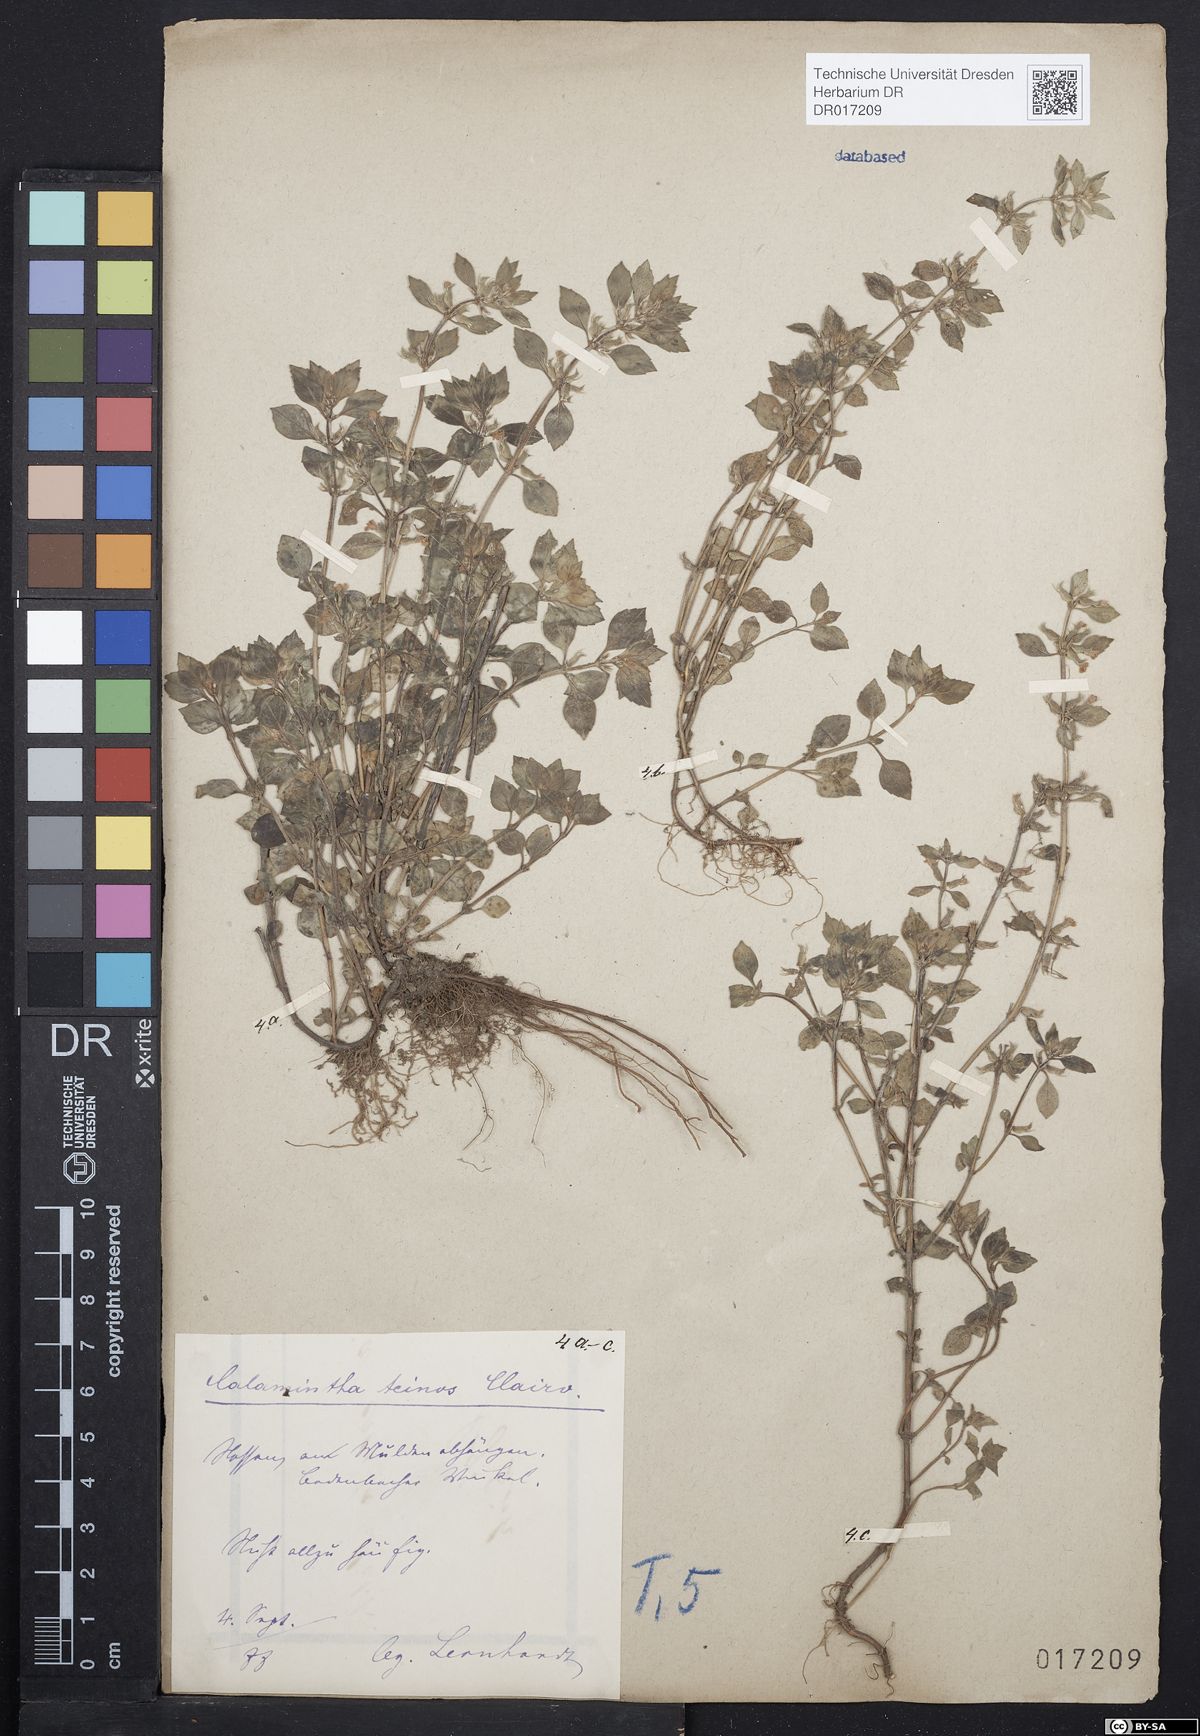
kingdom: Plantae
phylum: Tracheophyta
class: Magnoliopsida
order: Lamiales
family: Lamiaceae
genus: Clinopodium
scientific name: Clinopodium acinos
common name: Basil thyme
